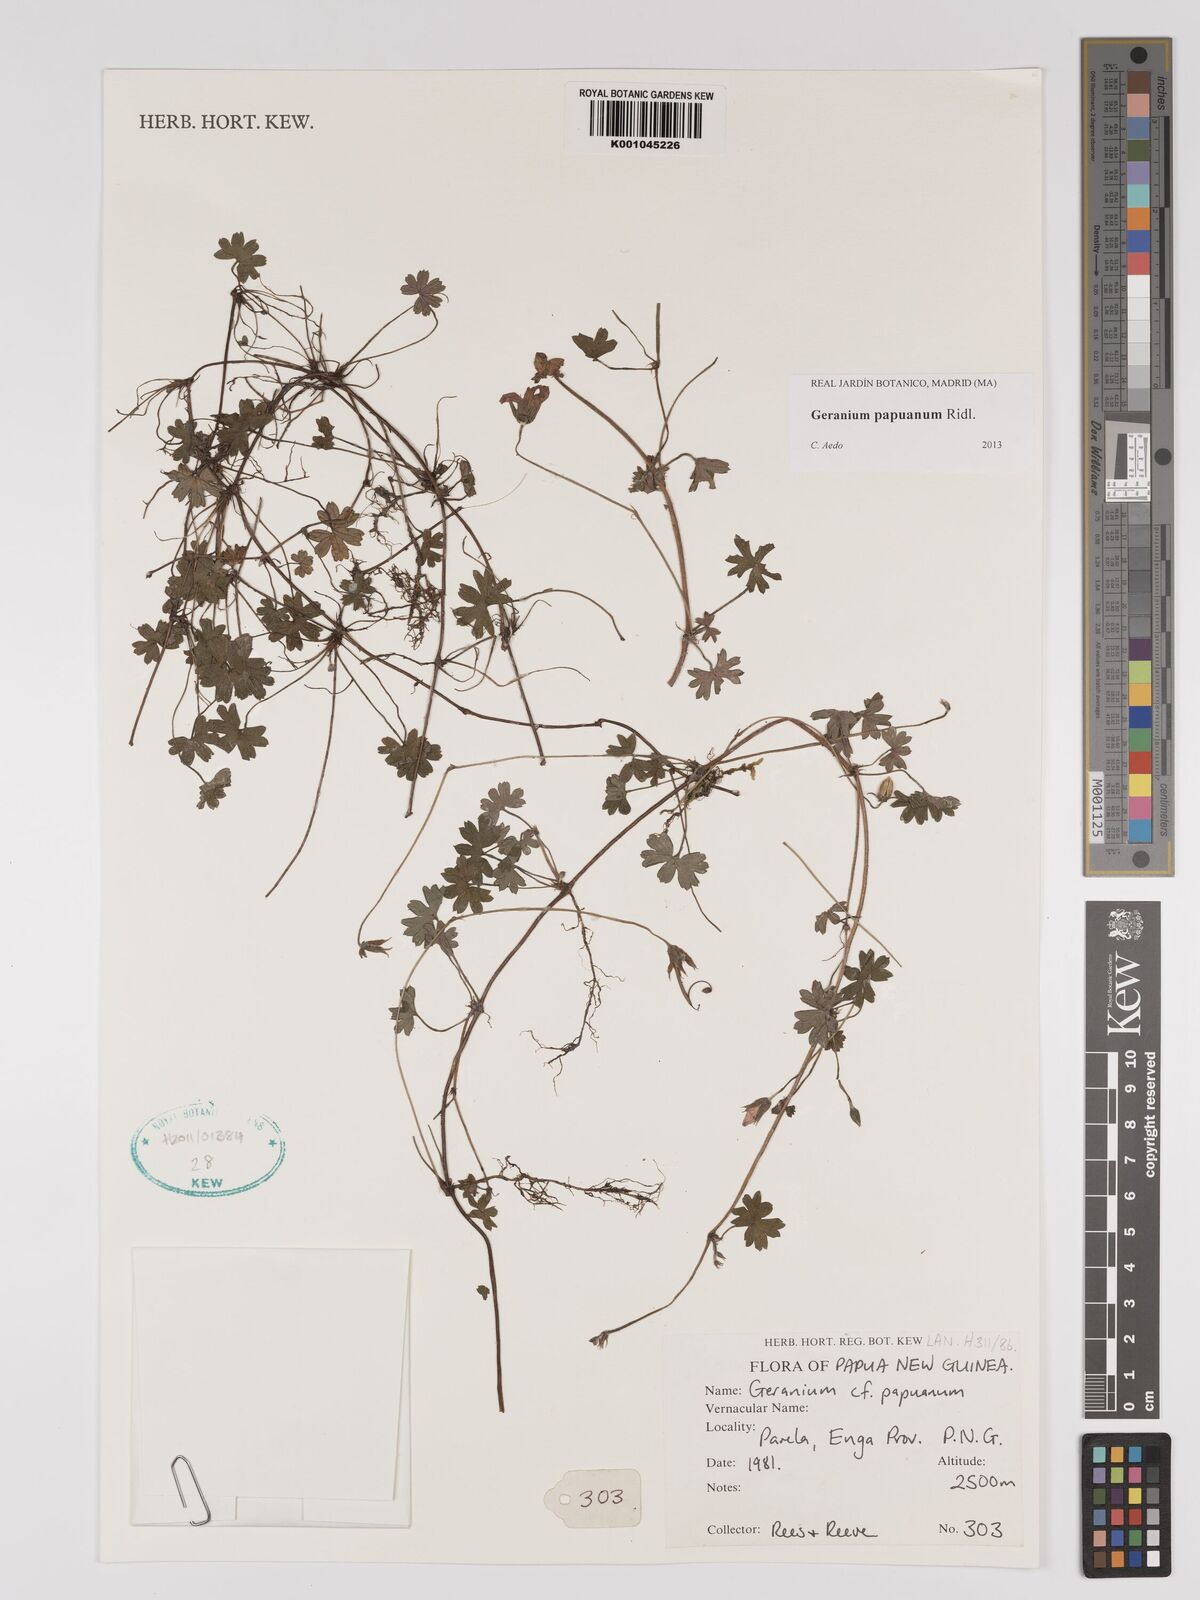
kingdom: Plantae
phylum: Tracheophyta
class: Magnoliopsida
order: Geraniales
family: Geraniaceae
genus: Geranium
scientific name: Geranium papuanum
